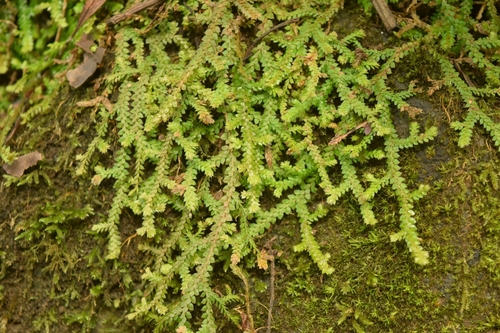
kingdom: Plantae
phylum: Tracheophyta
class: Lycopodiopsida
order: Selaginellales
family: Selaginellaceae
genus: Selaginella
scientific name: Selaginella denticulata
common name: Toothed-leaved clubmoss
